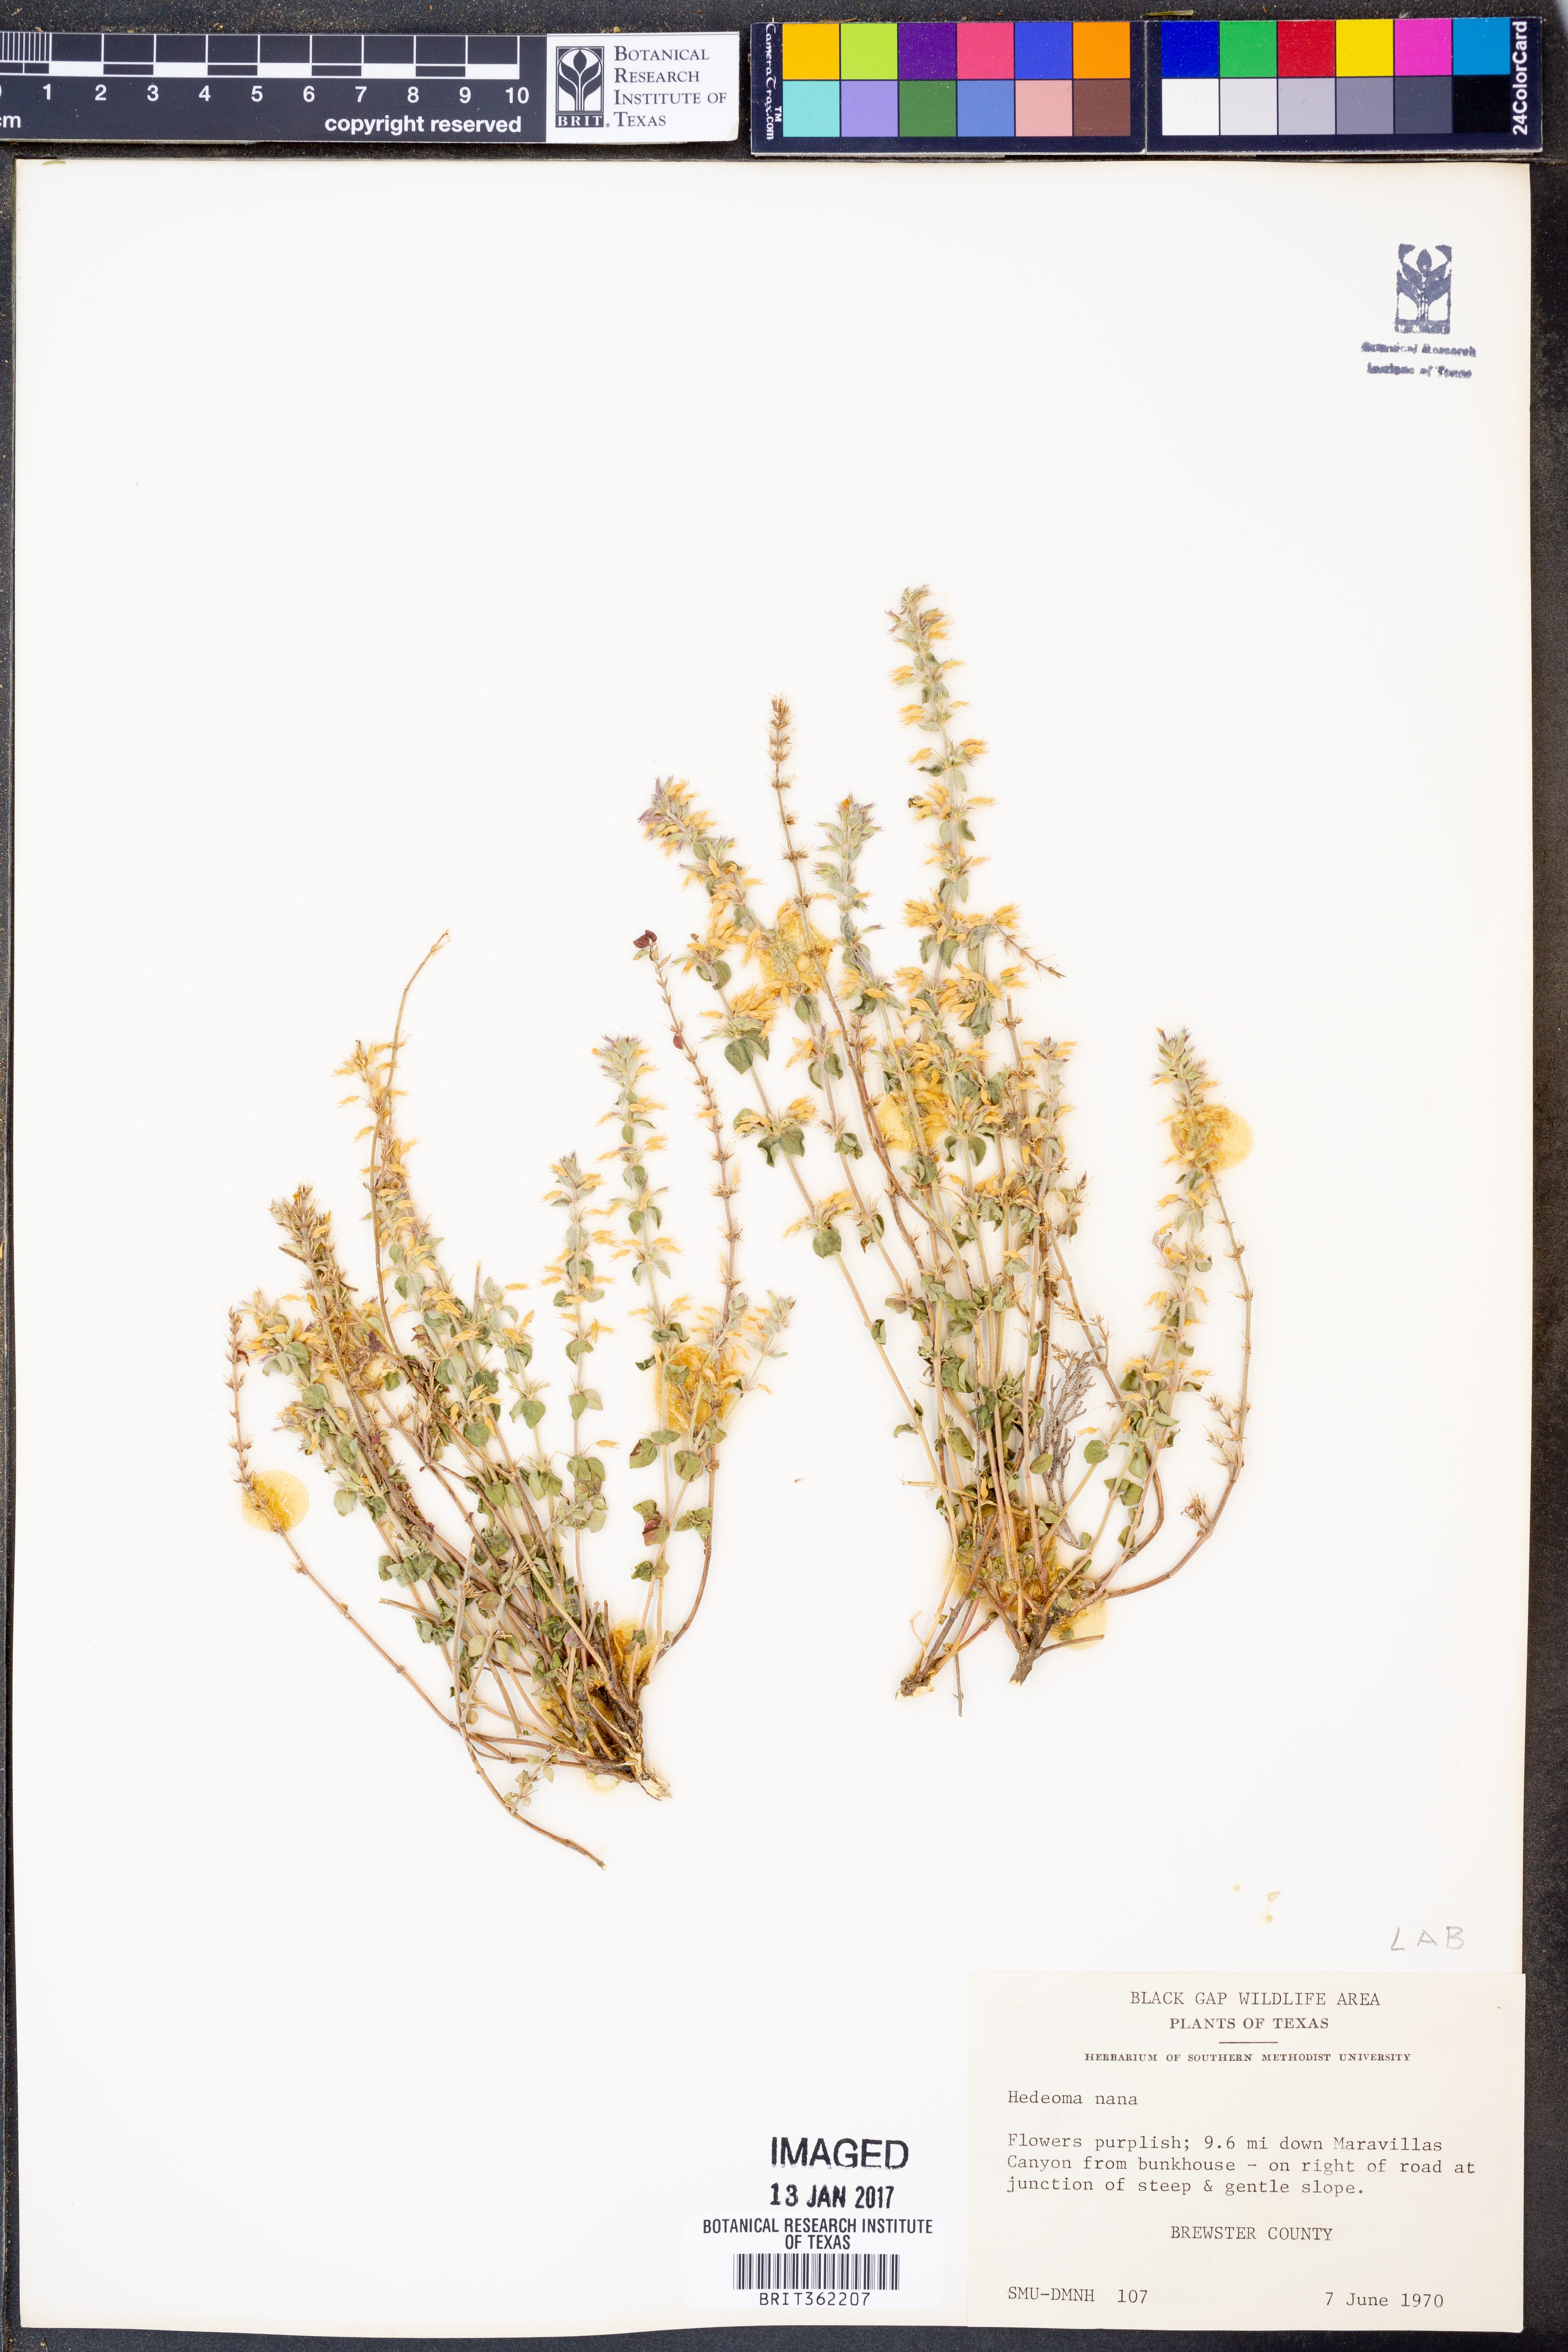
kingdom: Plantae
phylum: Tracheophyta
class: Magnoliopsida
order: Lamiales
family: Lamiaceae
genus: Hedeoma
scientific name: Hedeoma nana
